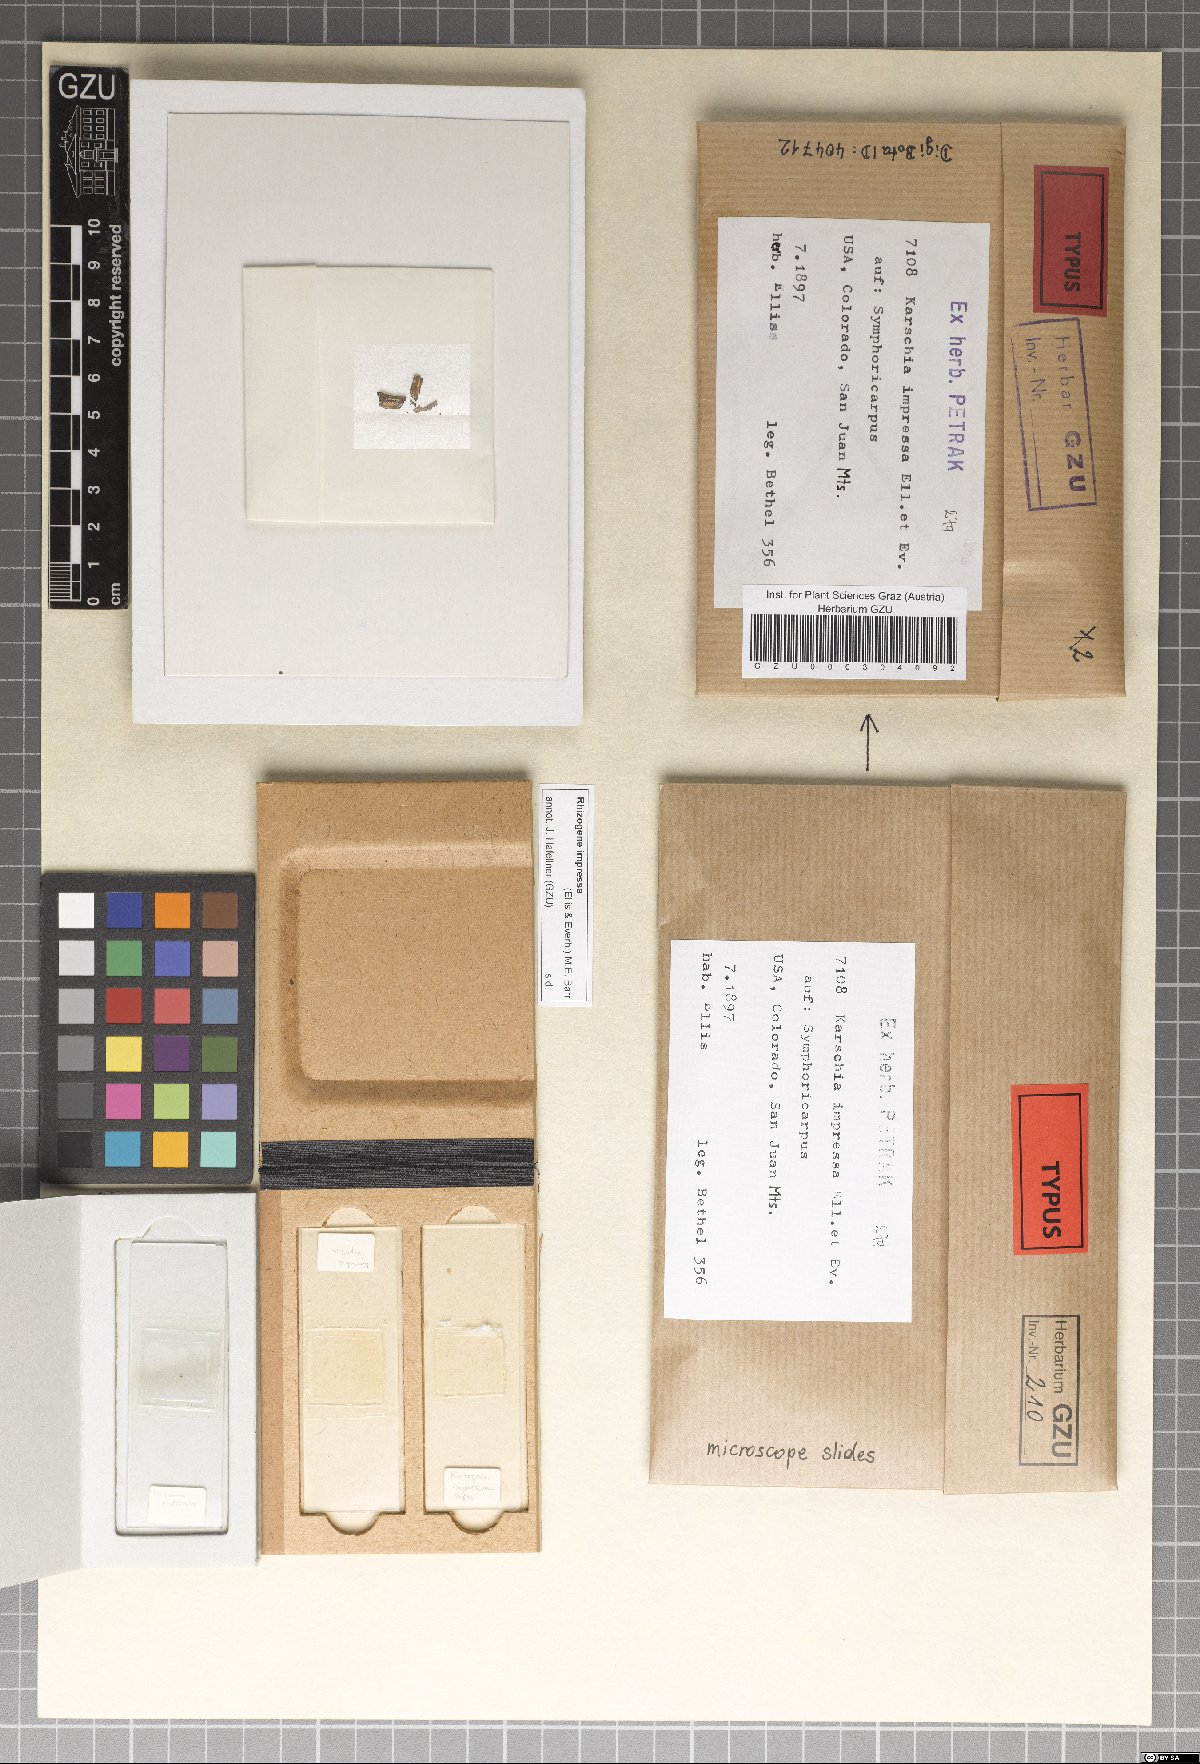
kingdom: Fungi
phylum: Ascomycota
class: Dothideomycetes
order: Venturiales
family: Venturiaceae
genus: Rhizogene
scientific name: Rhizogene impressa
